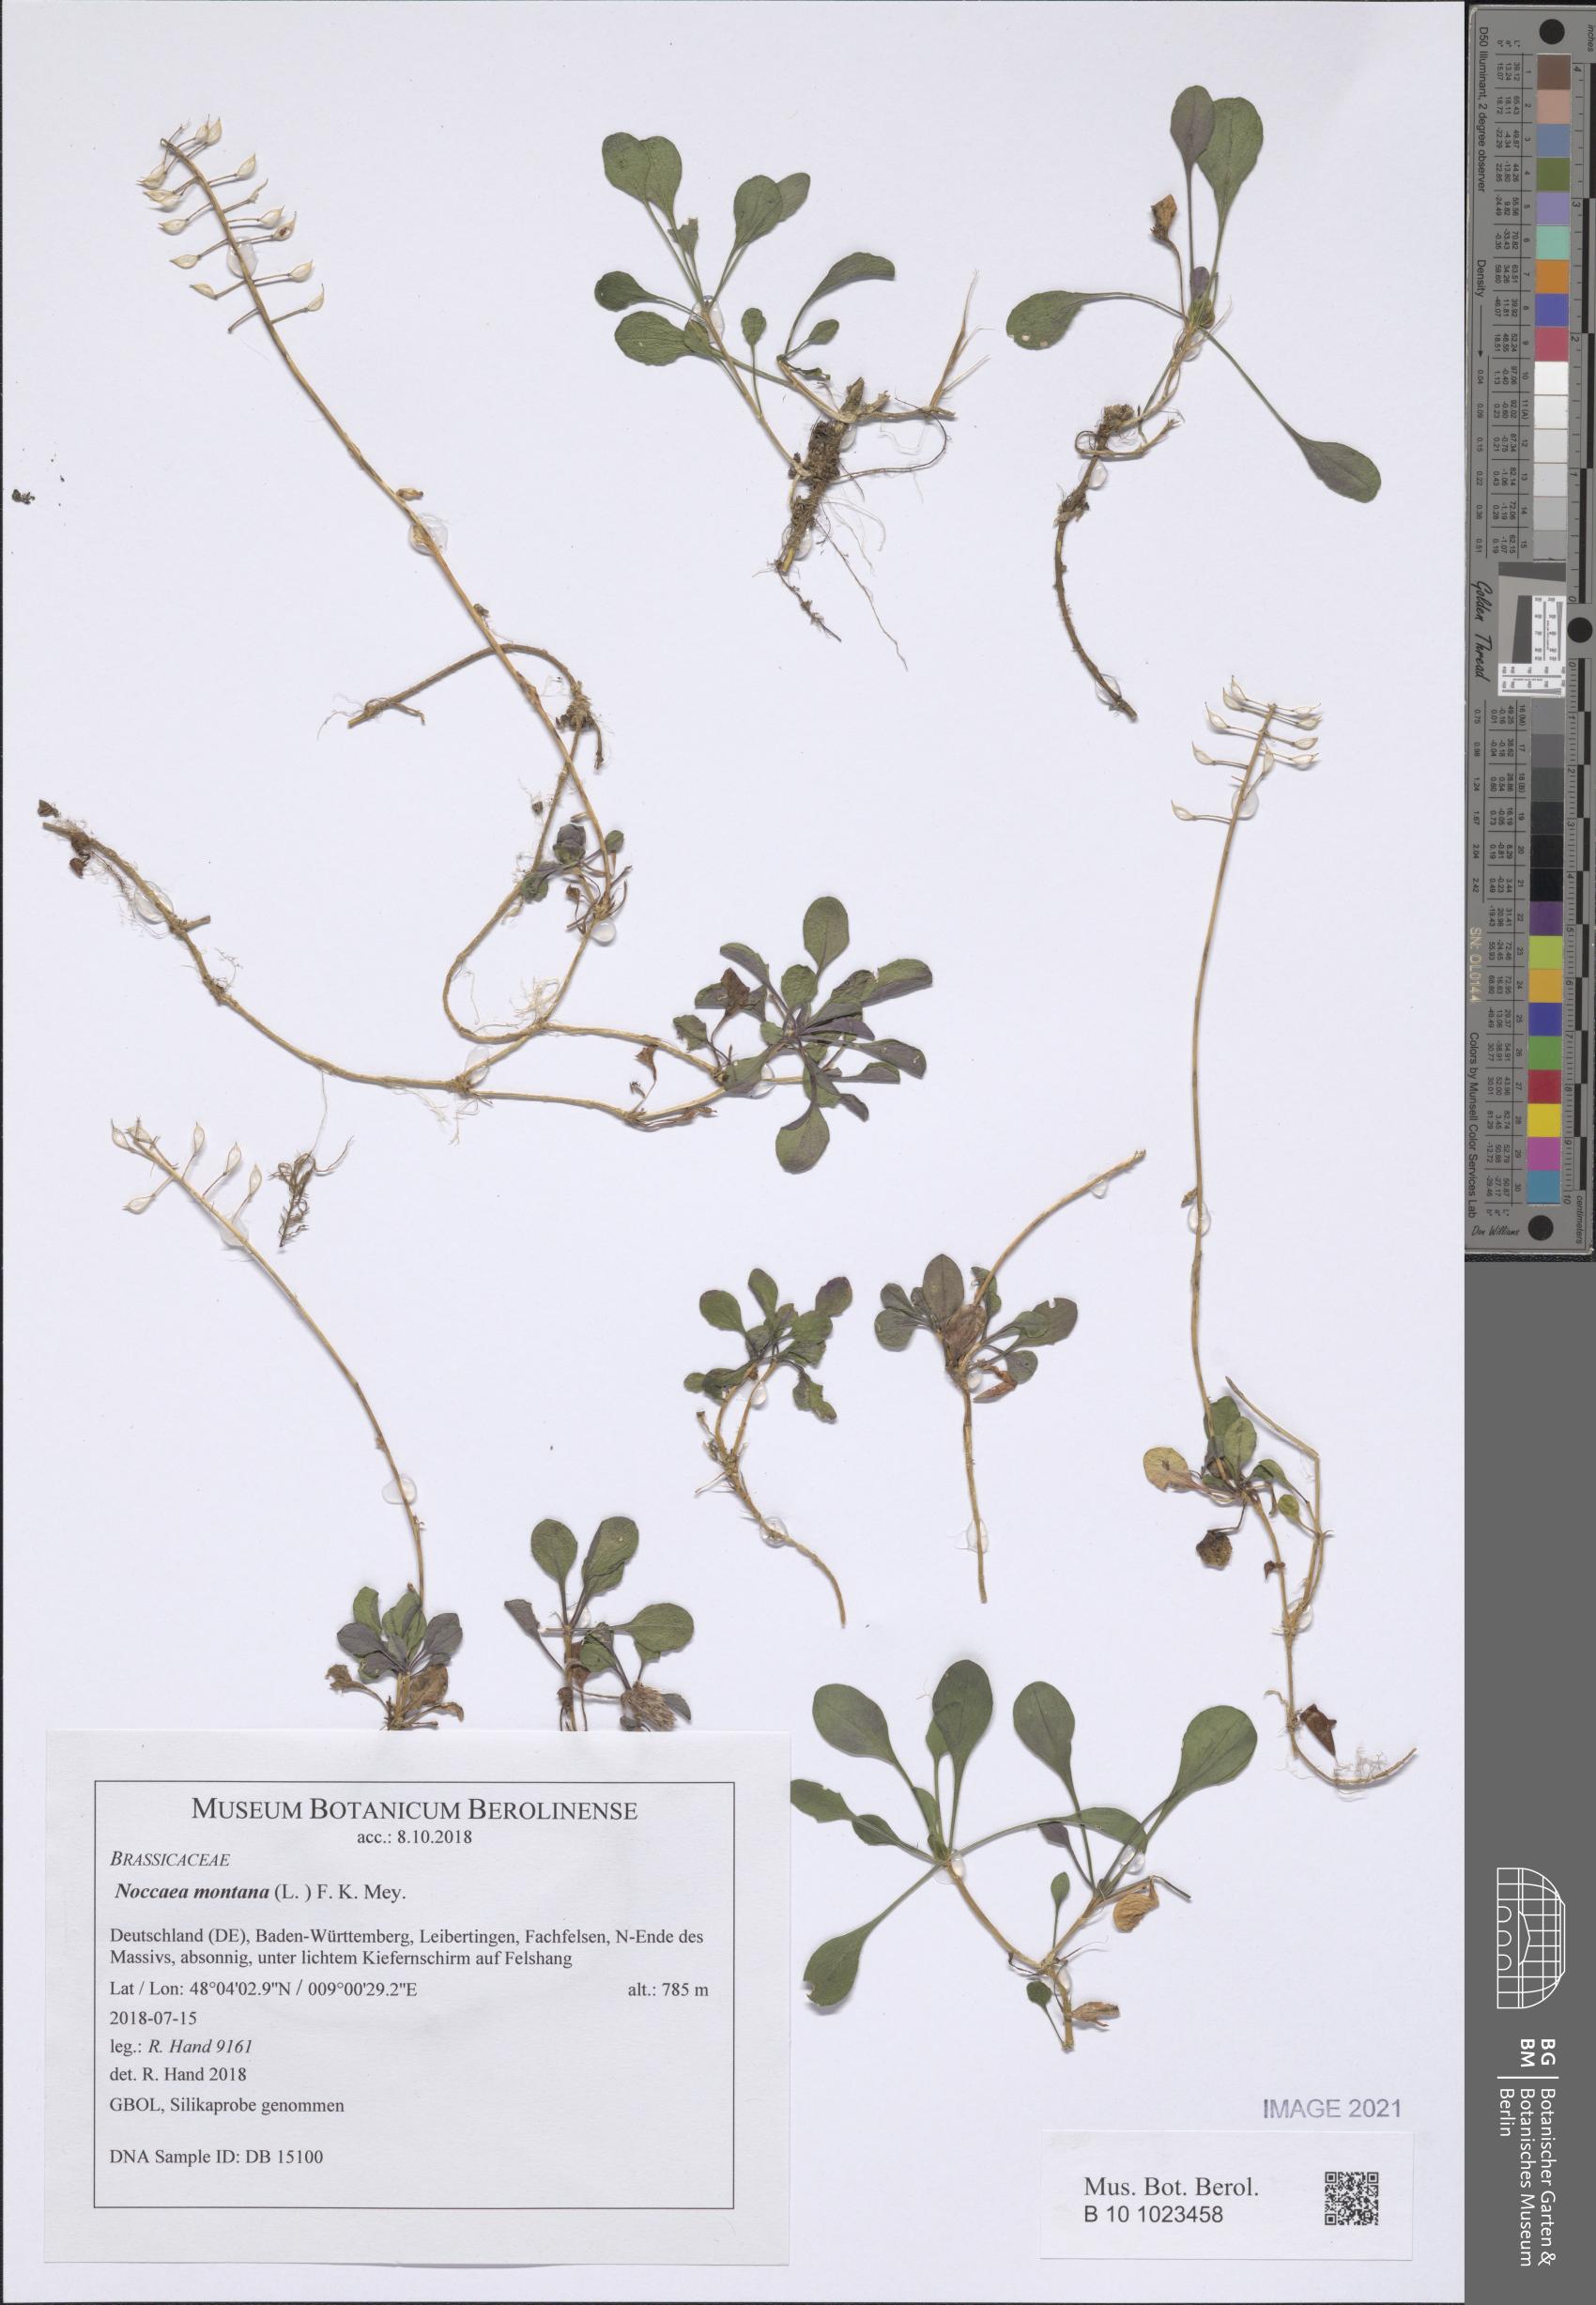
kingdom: Plantae
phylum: Tracheophyta
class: Magnoliopsida
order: Brassicales
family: Brassicaceae
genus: Noccaea
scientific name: Noccaea montana
